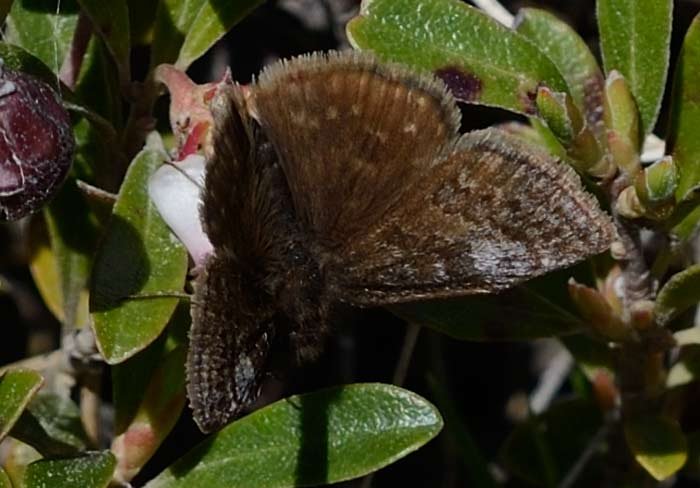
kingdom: Animalia
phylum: Arthropoda
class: Insecta
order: Lepidoptera
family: Hesperiidae
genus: Erynnis
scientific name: Erynnis icelus
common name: Dreamy Duskywing
